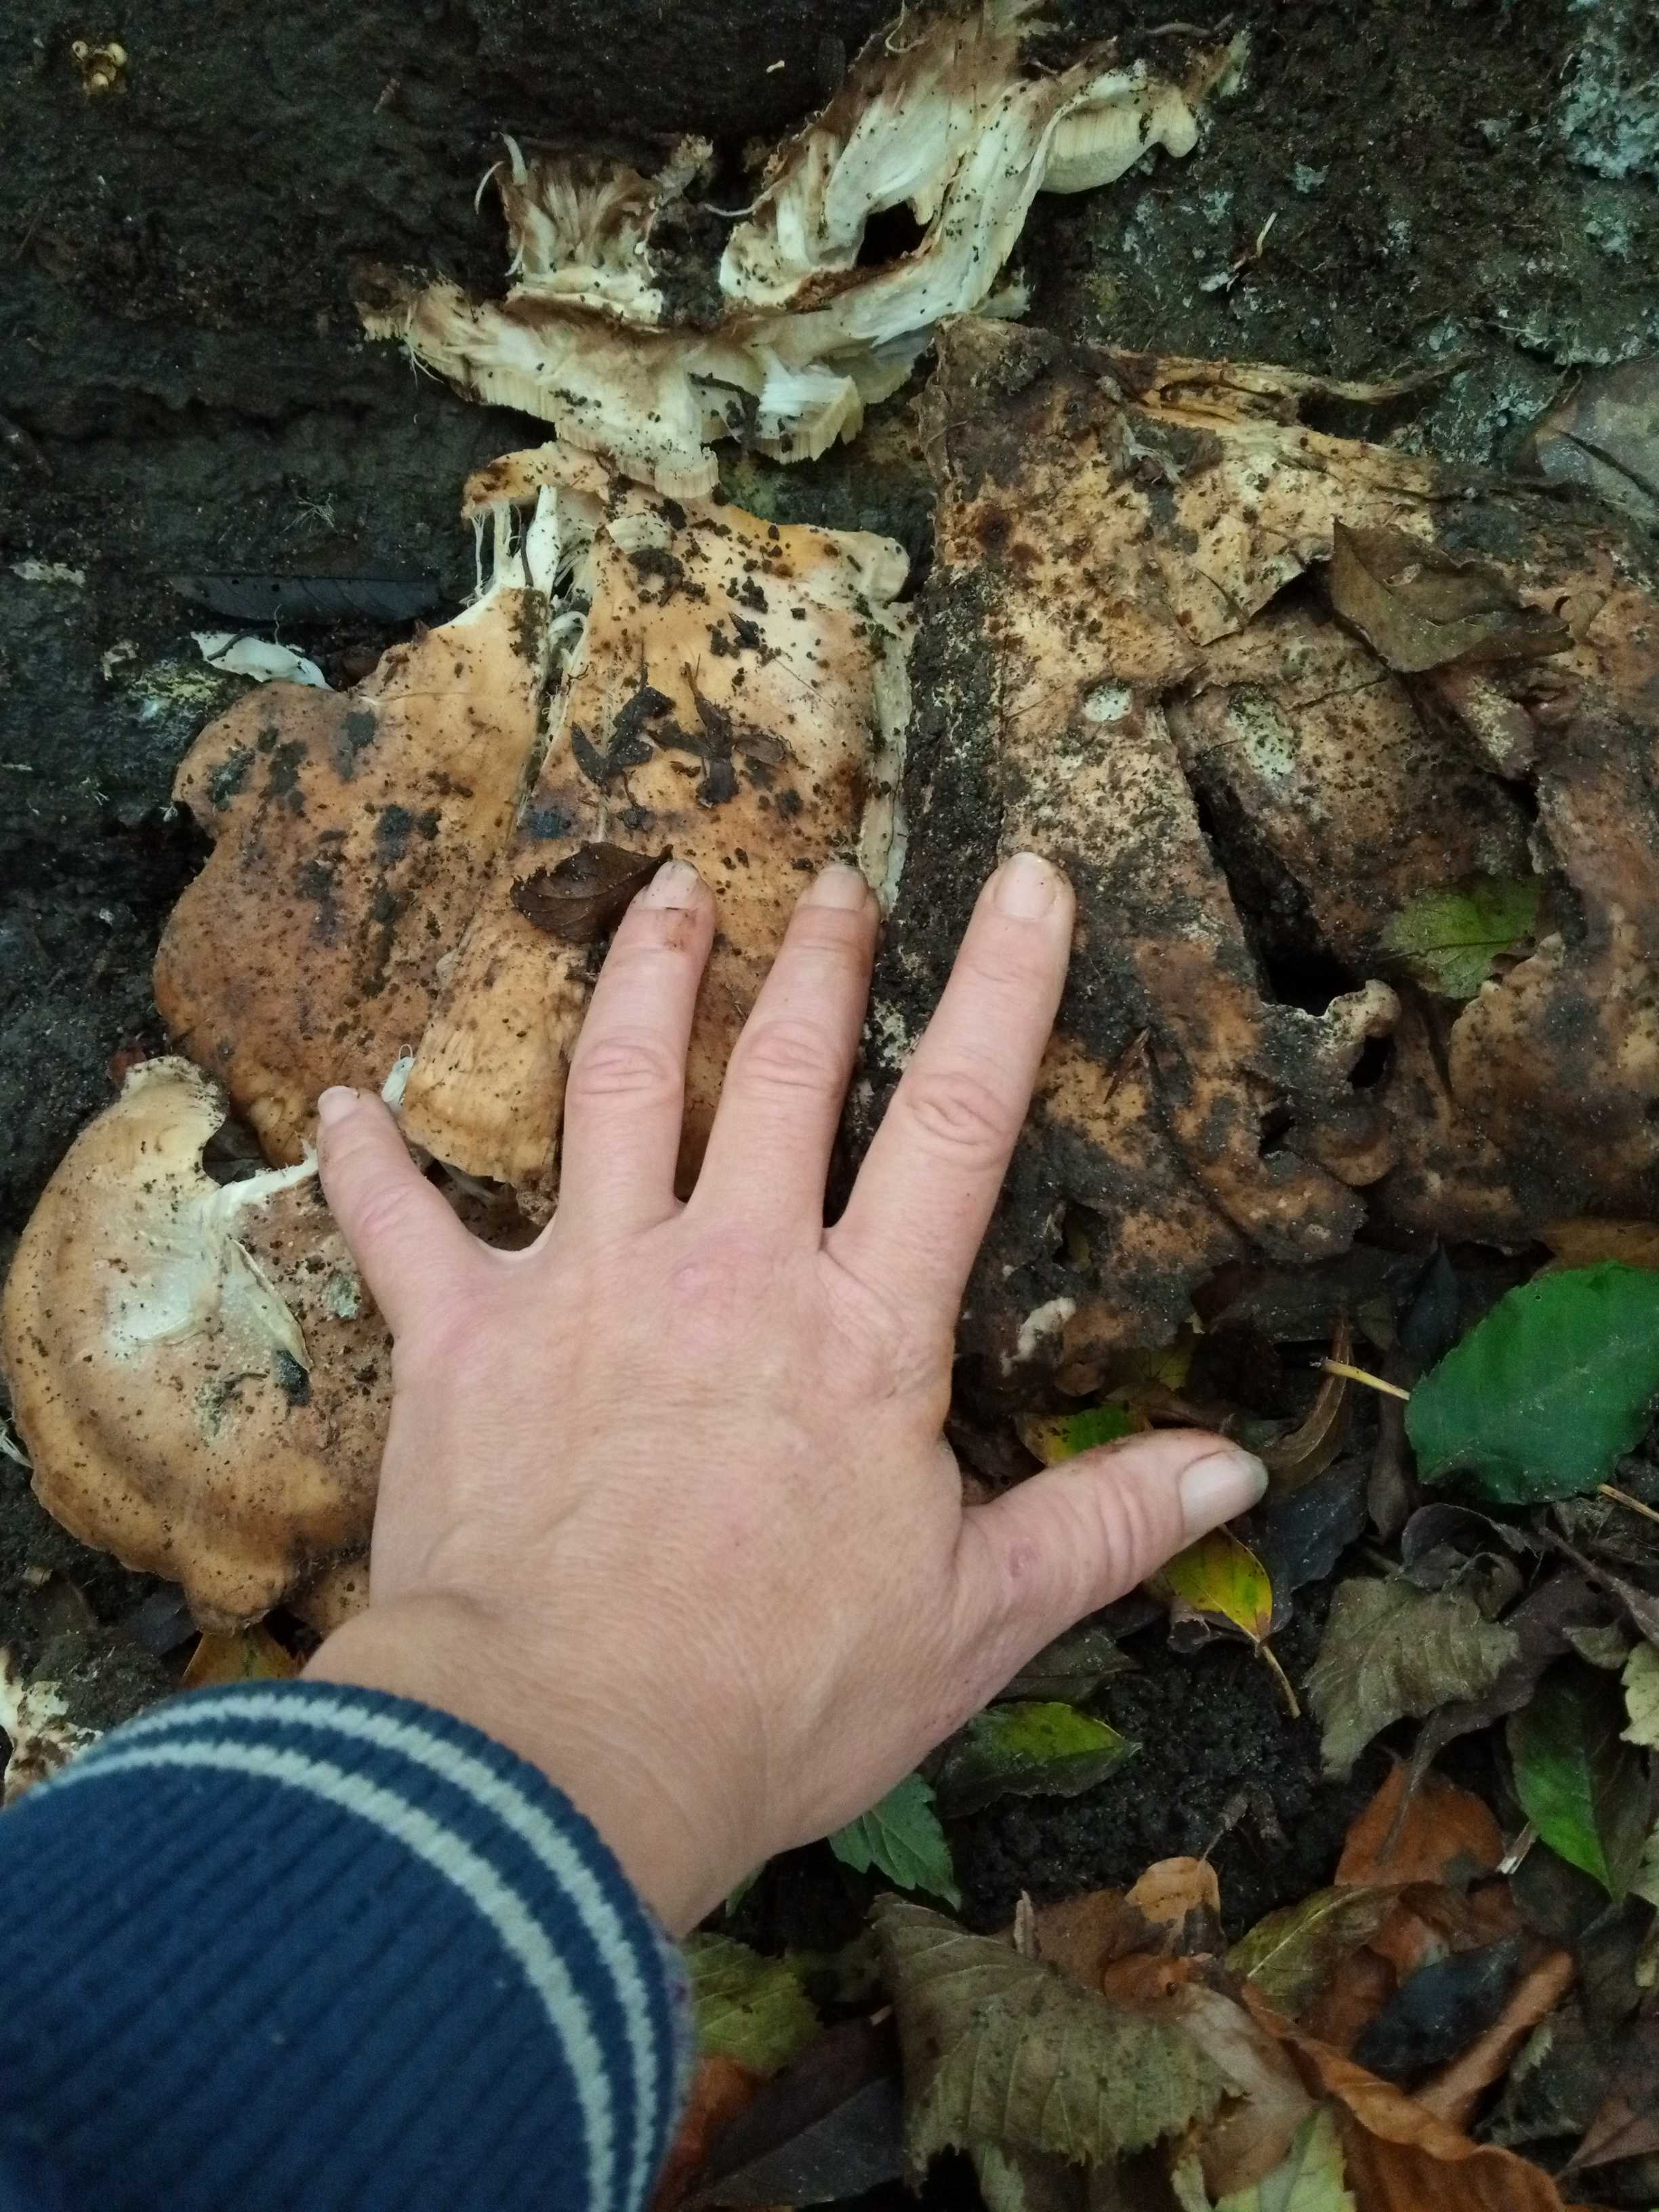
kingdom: Fungi
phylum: Basidiomycota
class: Agaricomycetes
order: Polyporales
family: Meripilaceae
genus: Meripilus
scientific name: Meripilus giganteus
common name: kæmpeporesvamp
